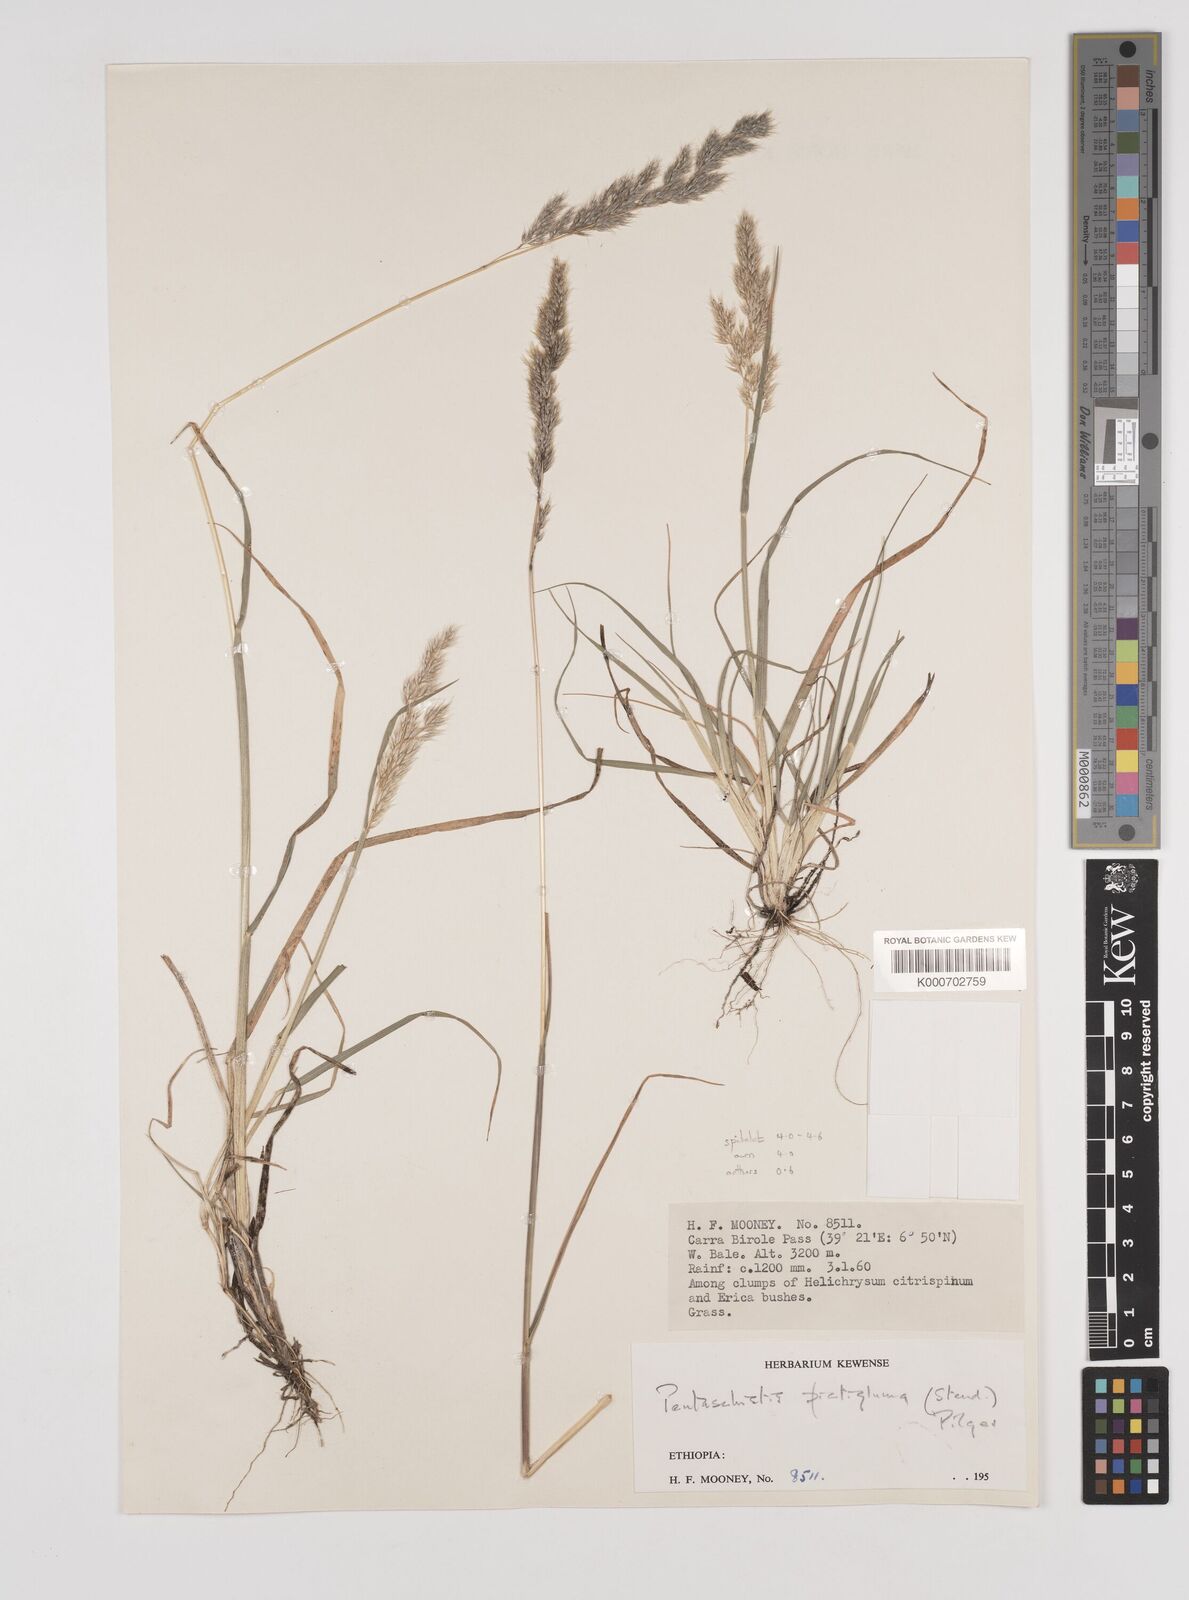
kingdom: Plantae
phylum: Tracheophyta
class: Liliopsida
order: Poales
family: Poaceae
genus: Pentameris
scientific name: Pentameris pictigluma
